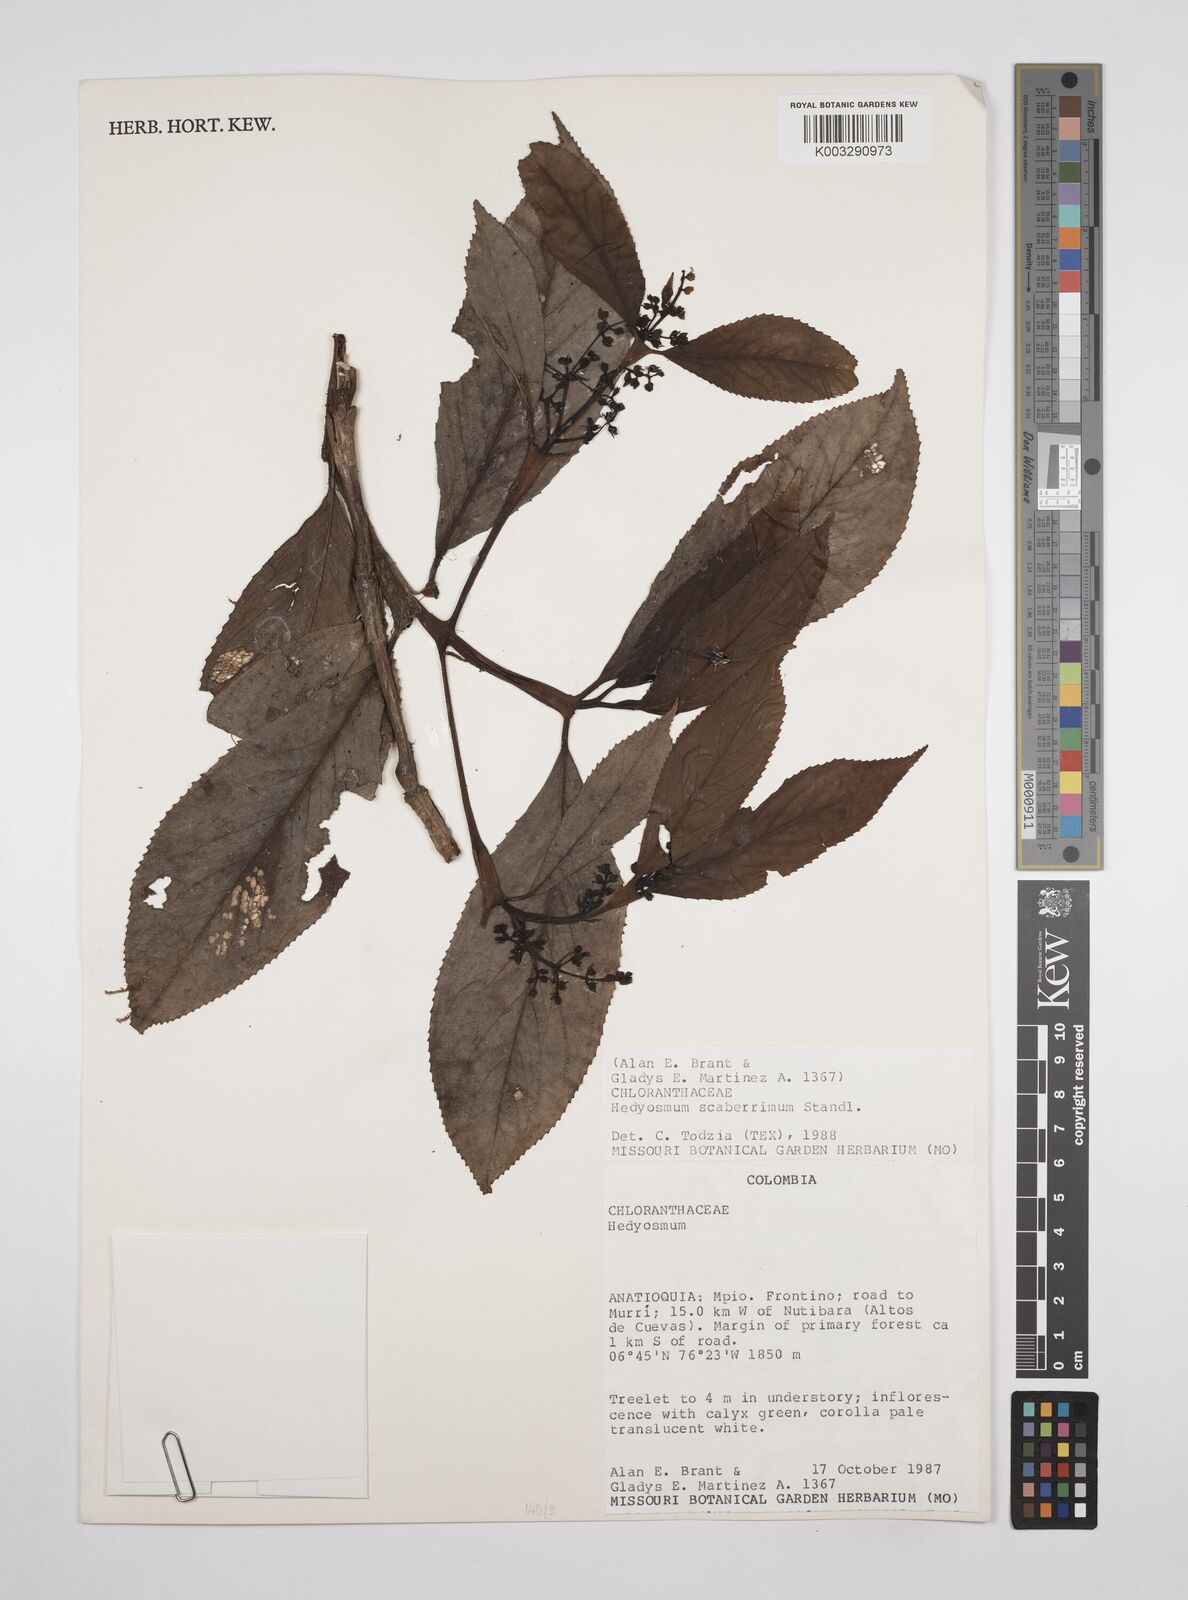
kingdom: Plantae
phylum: Tracheophyta
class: Magnoliopsida
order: Chloranthales
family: Chloranthaceae
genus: Hedyosmum
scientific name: Hedyosmum scaberrimum
